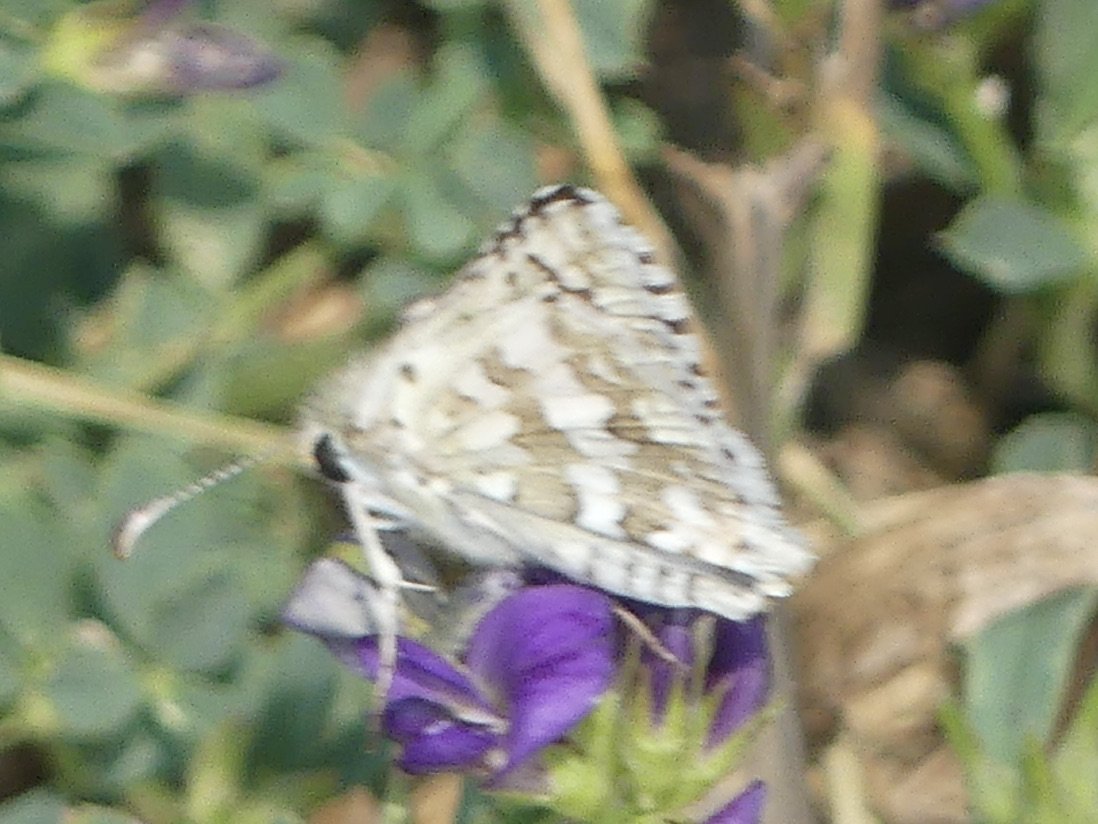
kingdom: Animalia
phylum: Arthropoda
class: Insecta
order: Lepidoptera
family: Hesperiidae
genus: Pyrgus
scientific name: Pyrgus communis
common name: Common Checkered-Skipper
